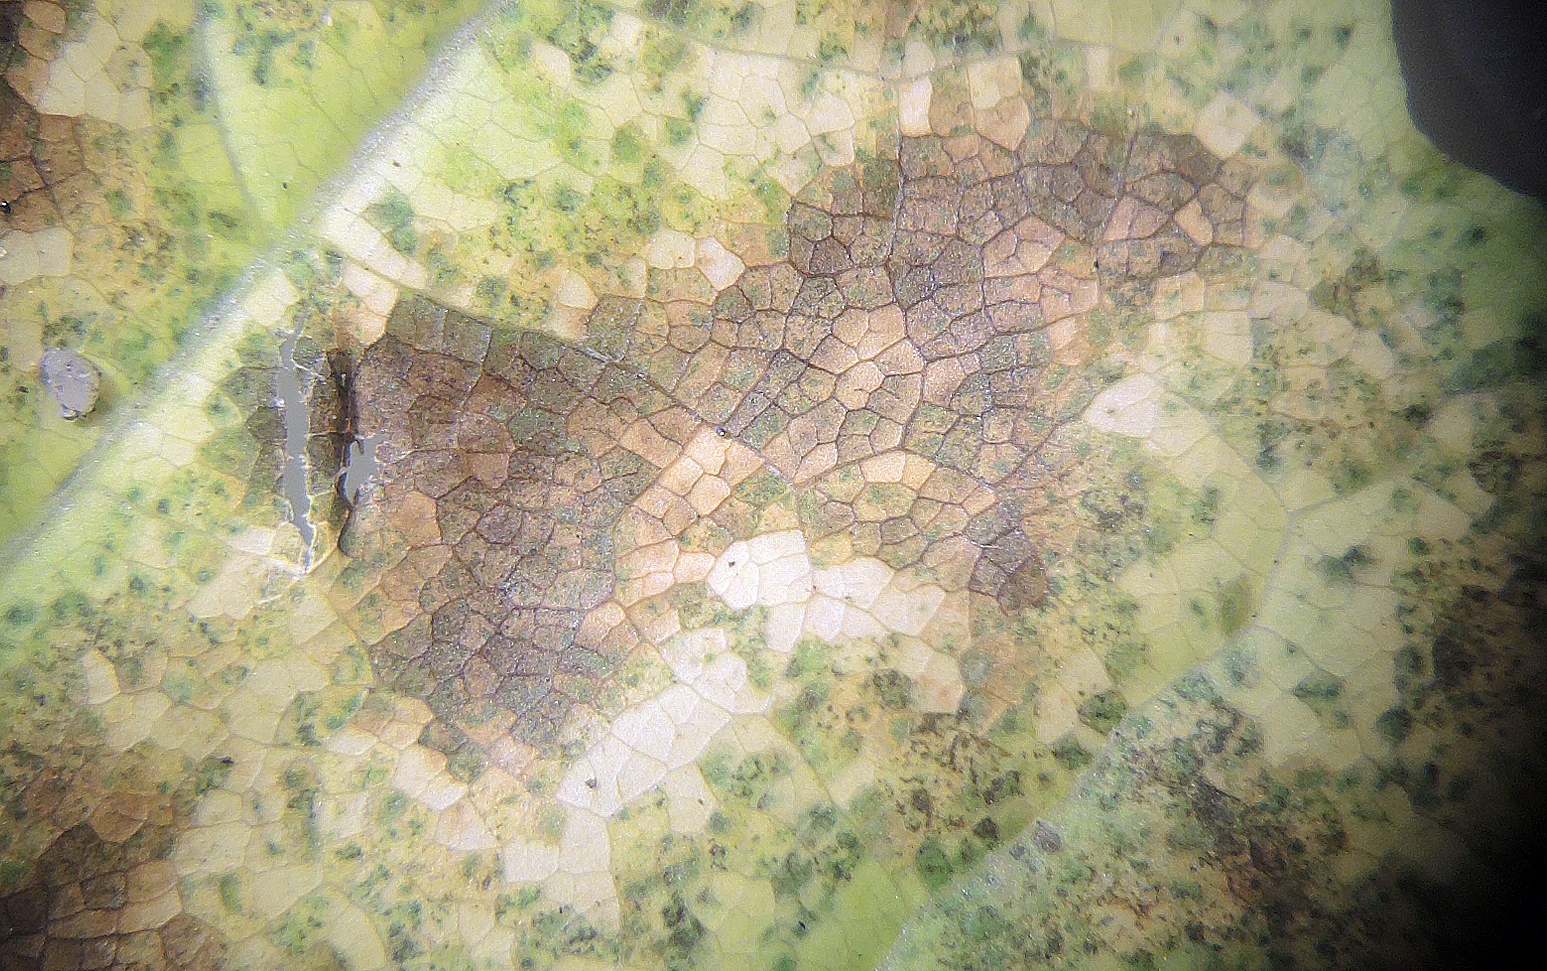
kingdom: Fungi
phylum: Ascomycota
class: Dothideomycetes
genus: Asteromella
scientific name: Asteromella platanoidis
